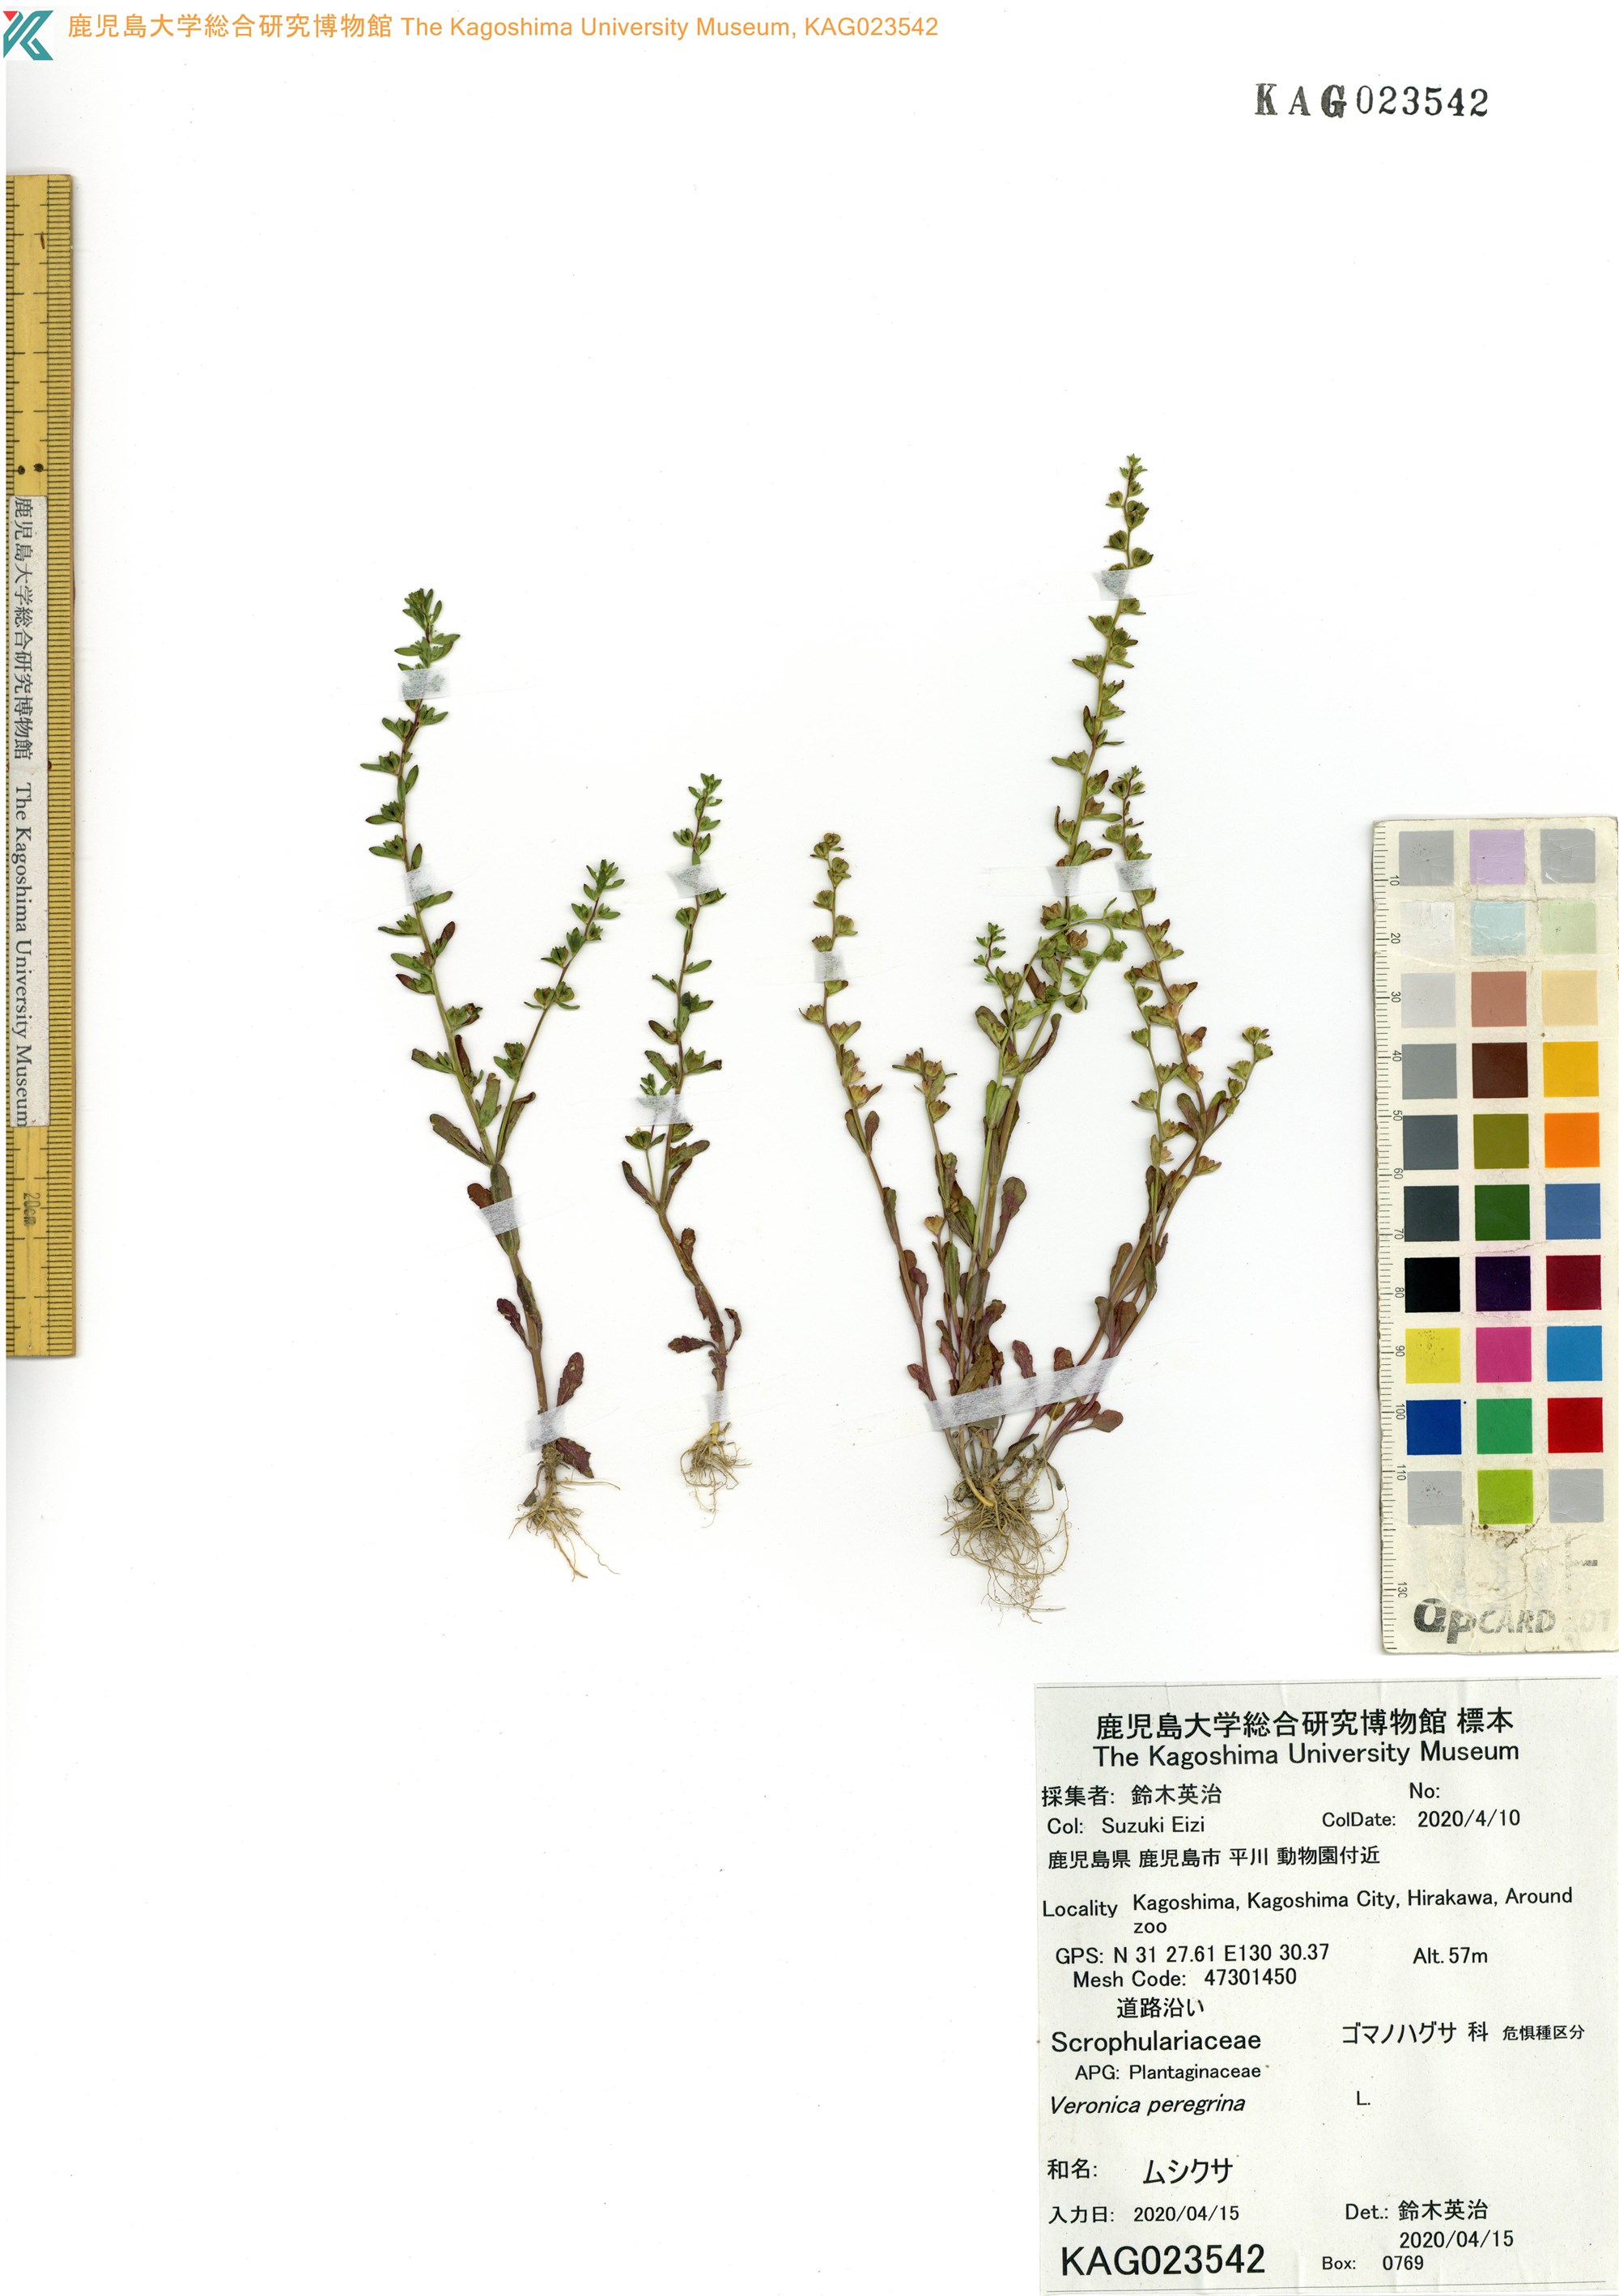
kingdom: Plantae
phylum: Tracheophyta
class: Magnoliopsida
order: Lamiales
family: Plantaginaceae
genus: Veronica
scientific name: Veronica peregrina
